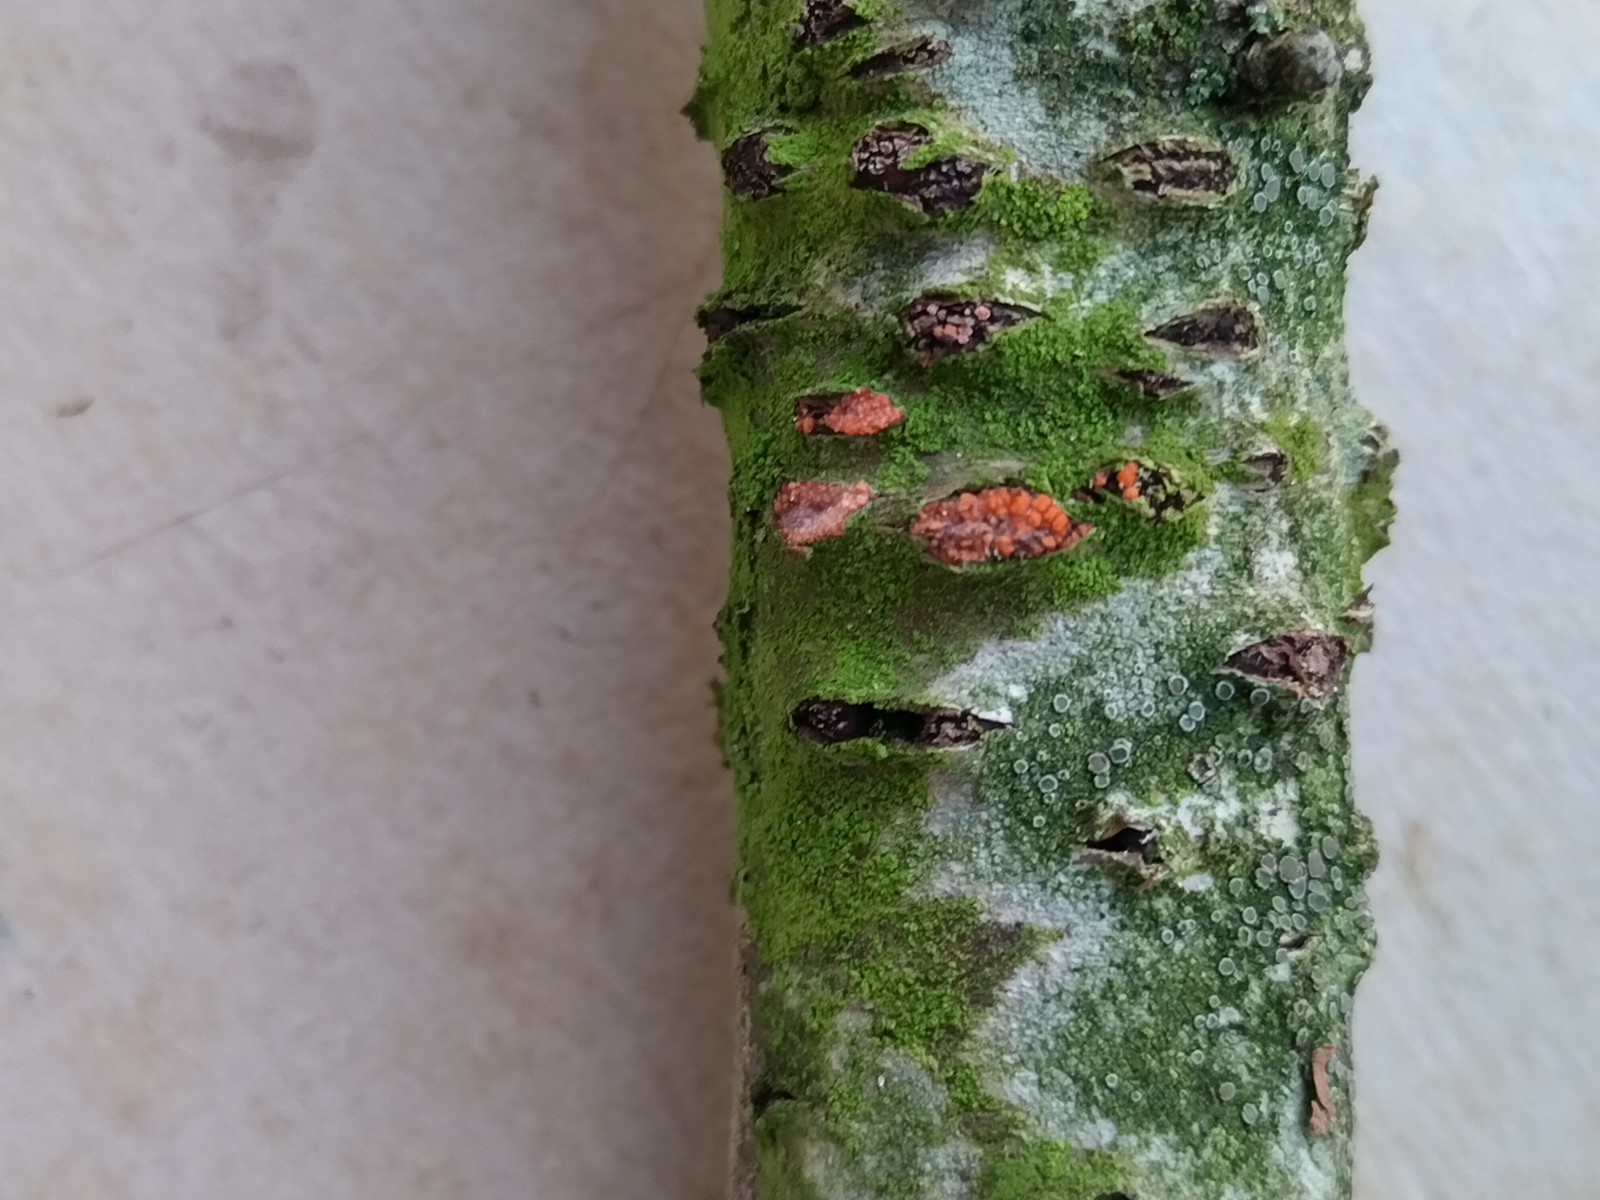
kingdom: Fungi
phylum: Ascomycota
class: Sordariomycetes
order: Hypocreales
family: Nectriaceae
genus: Dialonectria
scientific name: Dialonectria magnusiana
